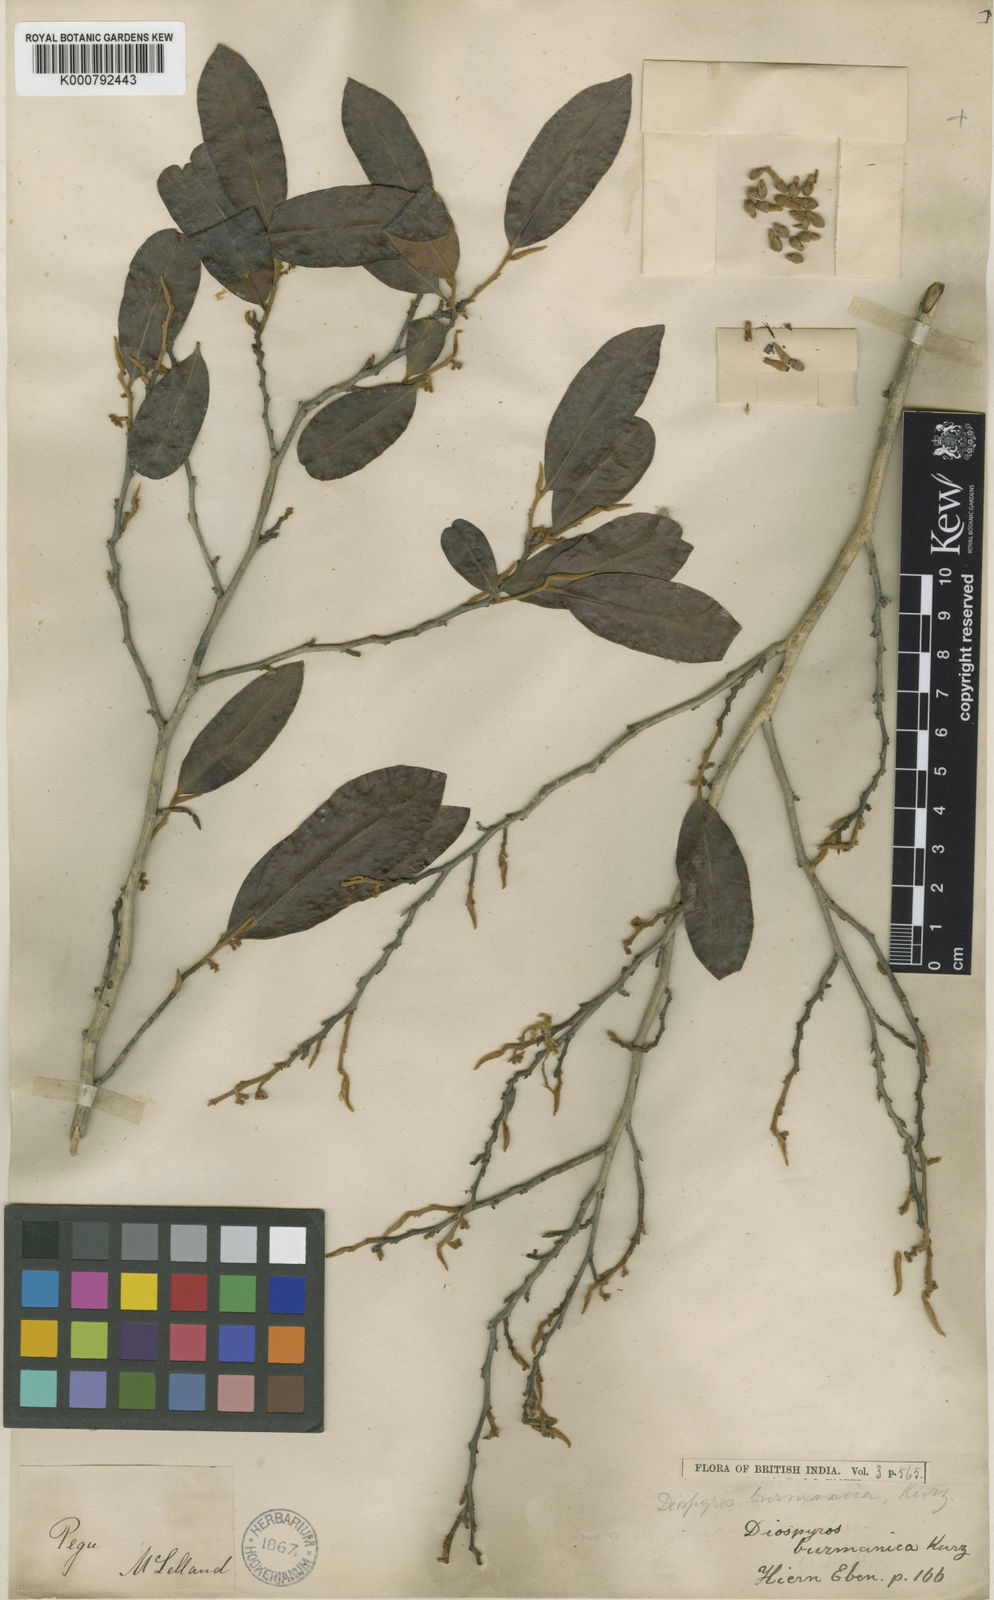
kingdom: Plantae
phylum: Tracheophyta
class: Magnoliopsida
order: Ericales
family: Ebenaceae
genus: Diospyros
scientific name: Diospyros burmanica
